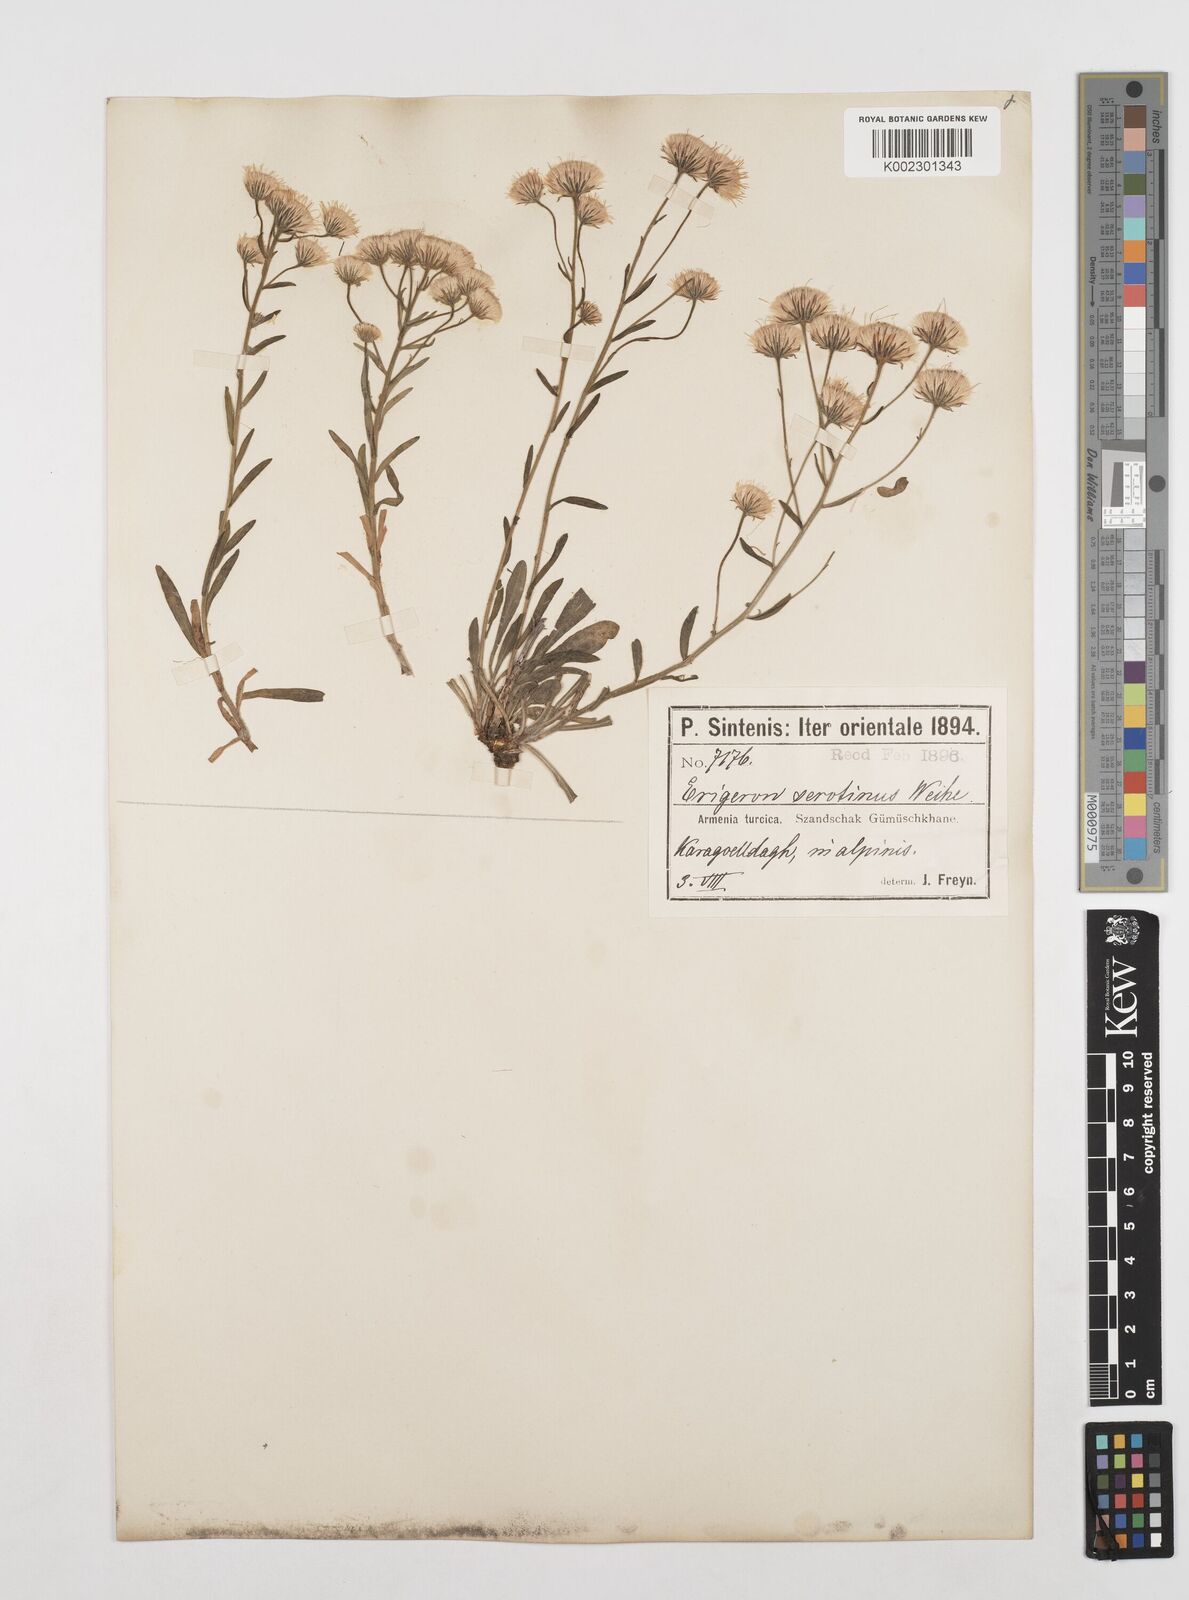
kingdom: Plantae
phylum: Tracheophyta
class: Magnoliopsida
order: Asterales
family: Asteraceae
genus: Erigeron
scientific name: Erigeron muralis
